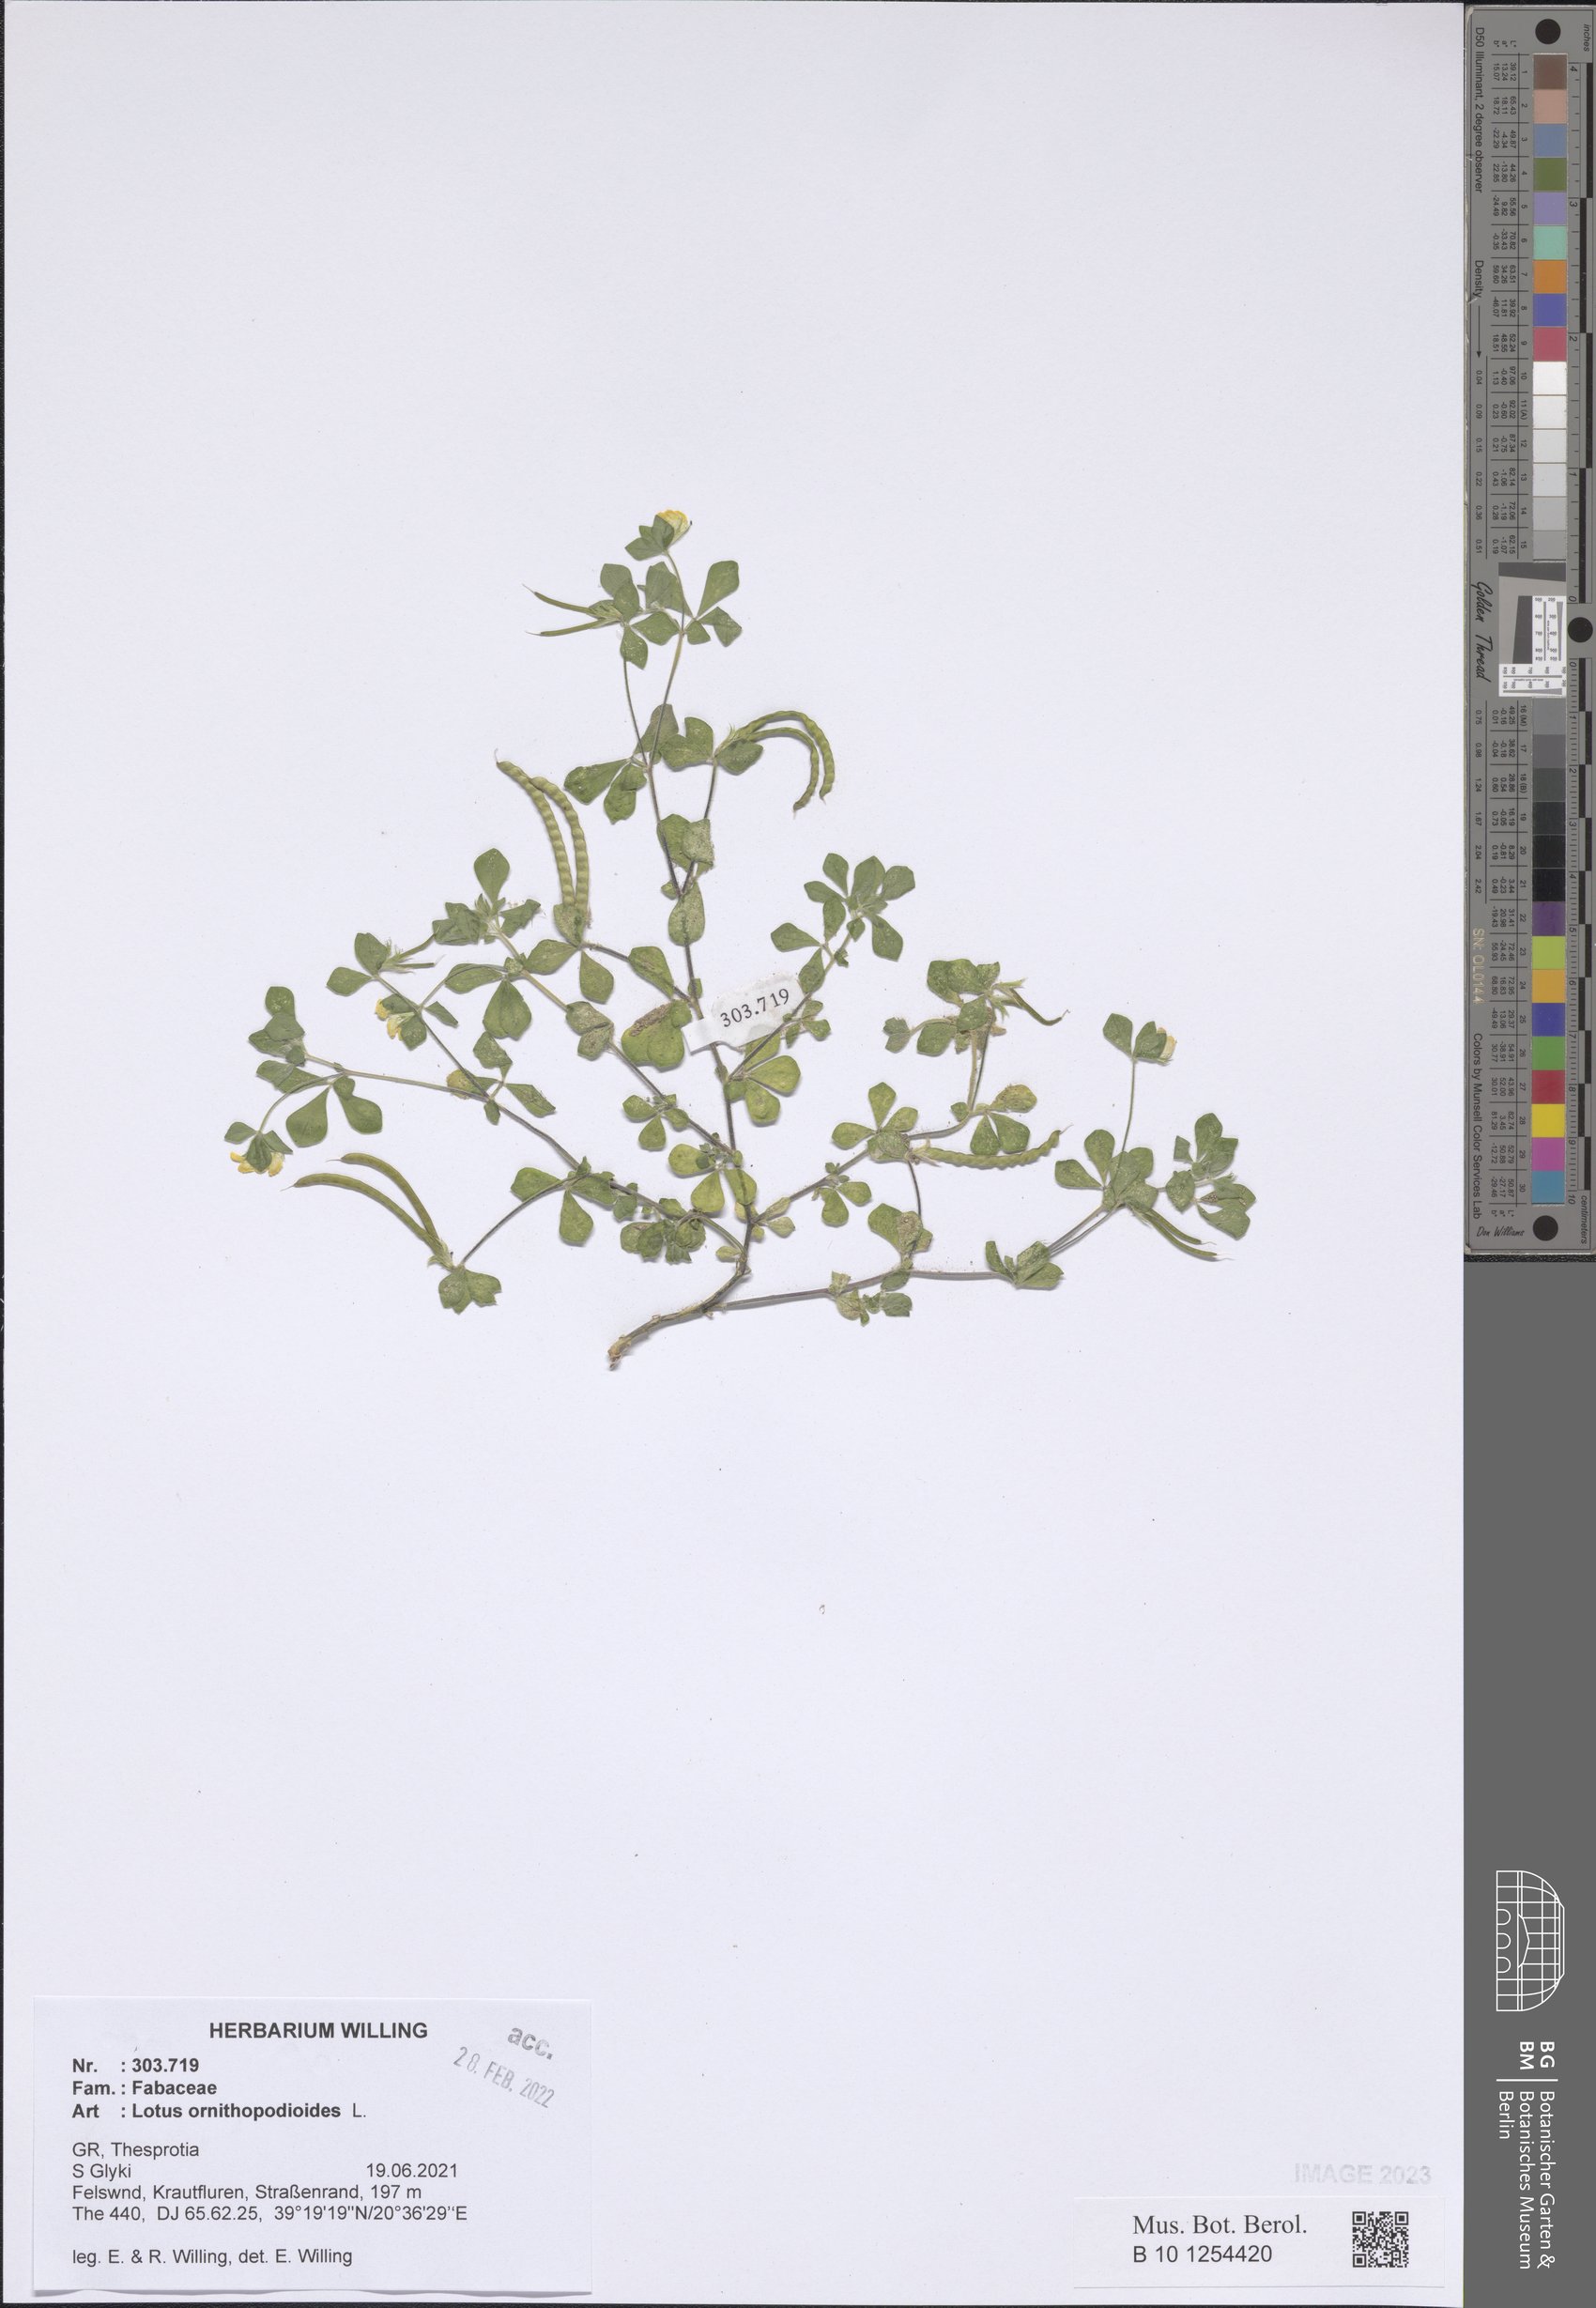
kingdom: Plantae
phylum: Tracheophyta
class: Magnoliopsida
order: Fabales
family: Fabaceae
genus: Lotus
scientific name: Lotus ornithopodioides
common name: Southern bird's-foot trefoil
